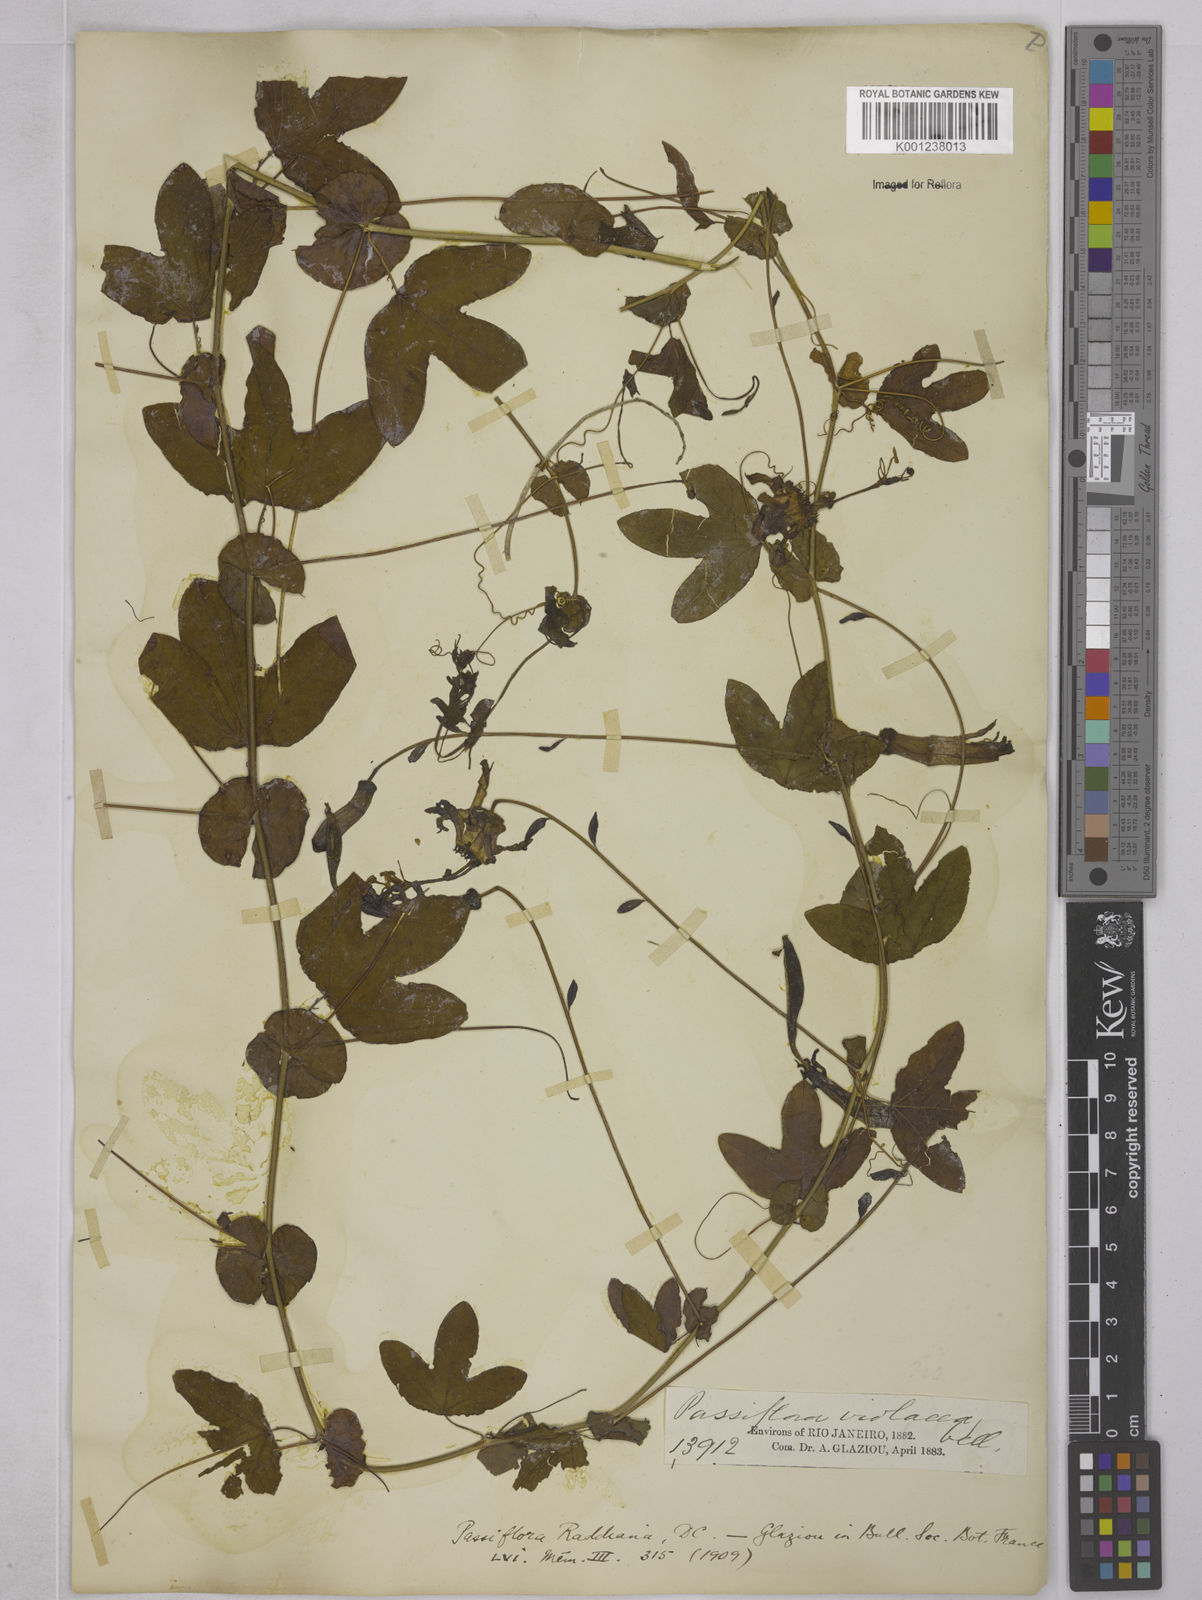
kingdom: Plantae
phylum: Tracheophyta
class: Magnoliopsida
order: Malpighiales
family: Passifloraceae
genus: Passiflora
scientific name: Passiflora kermesina
